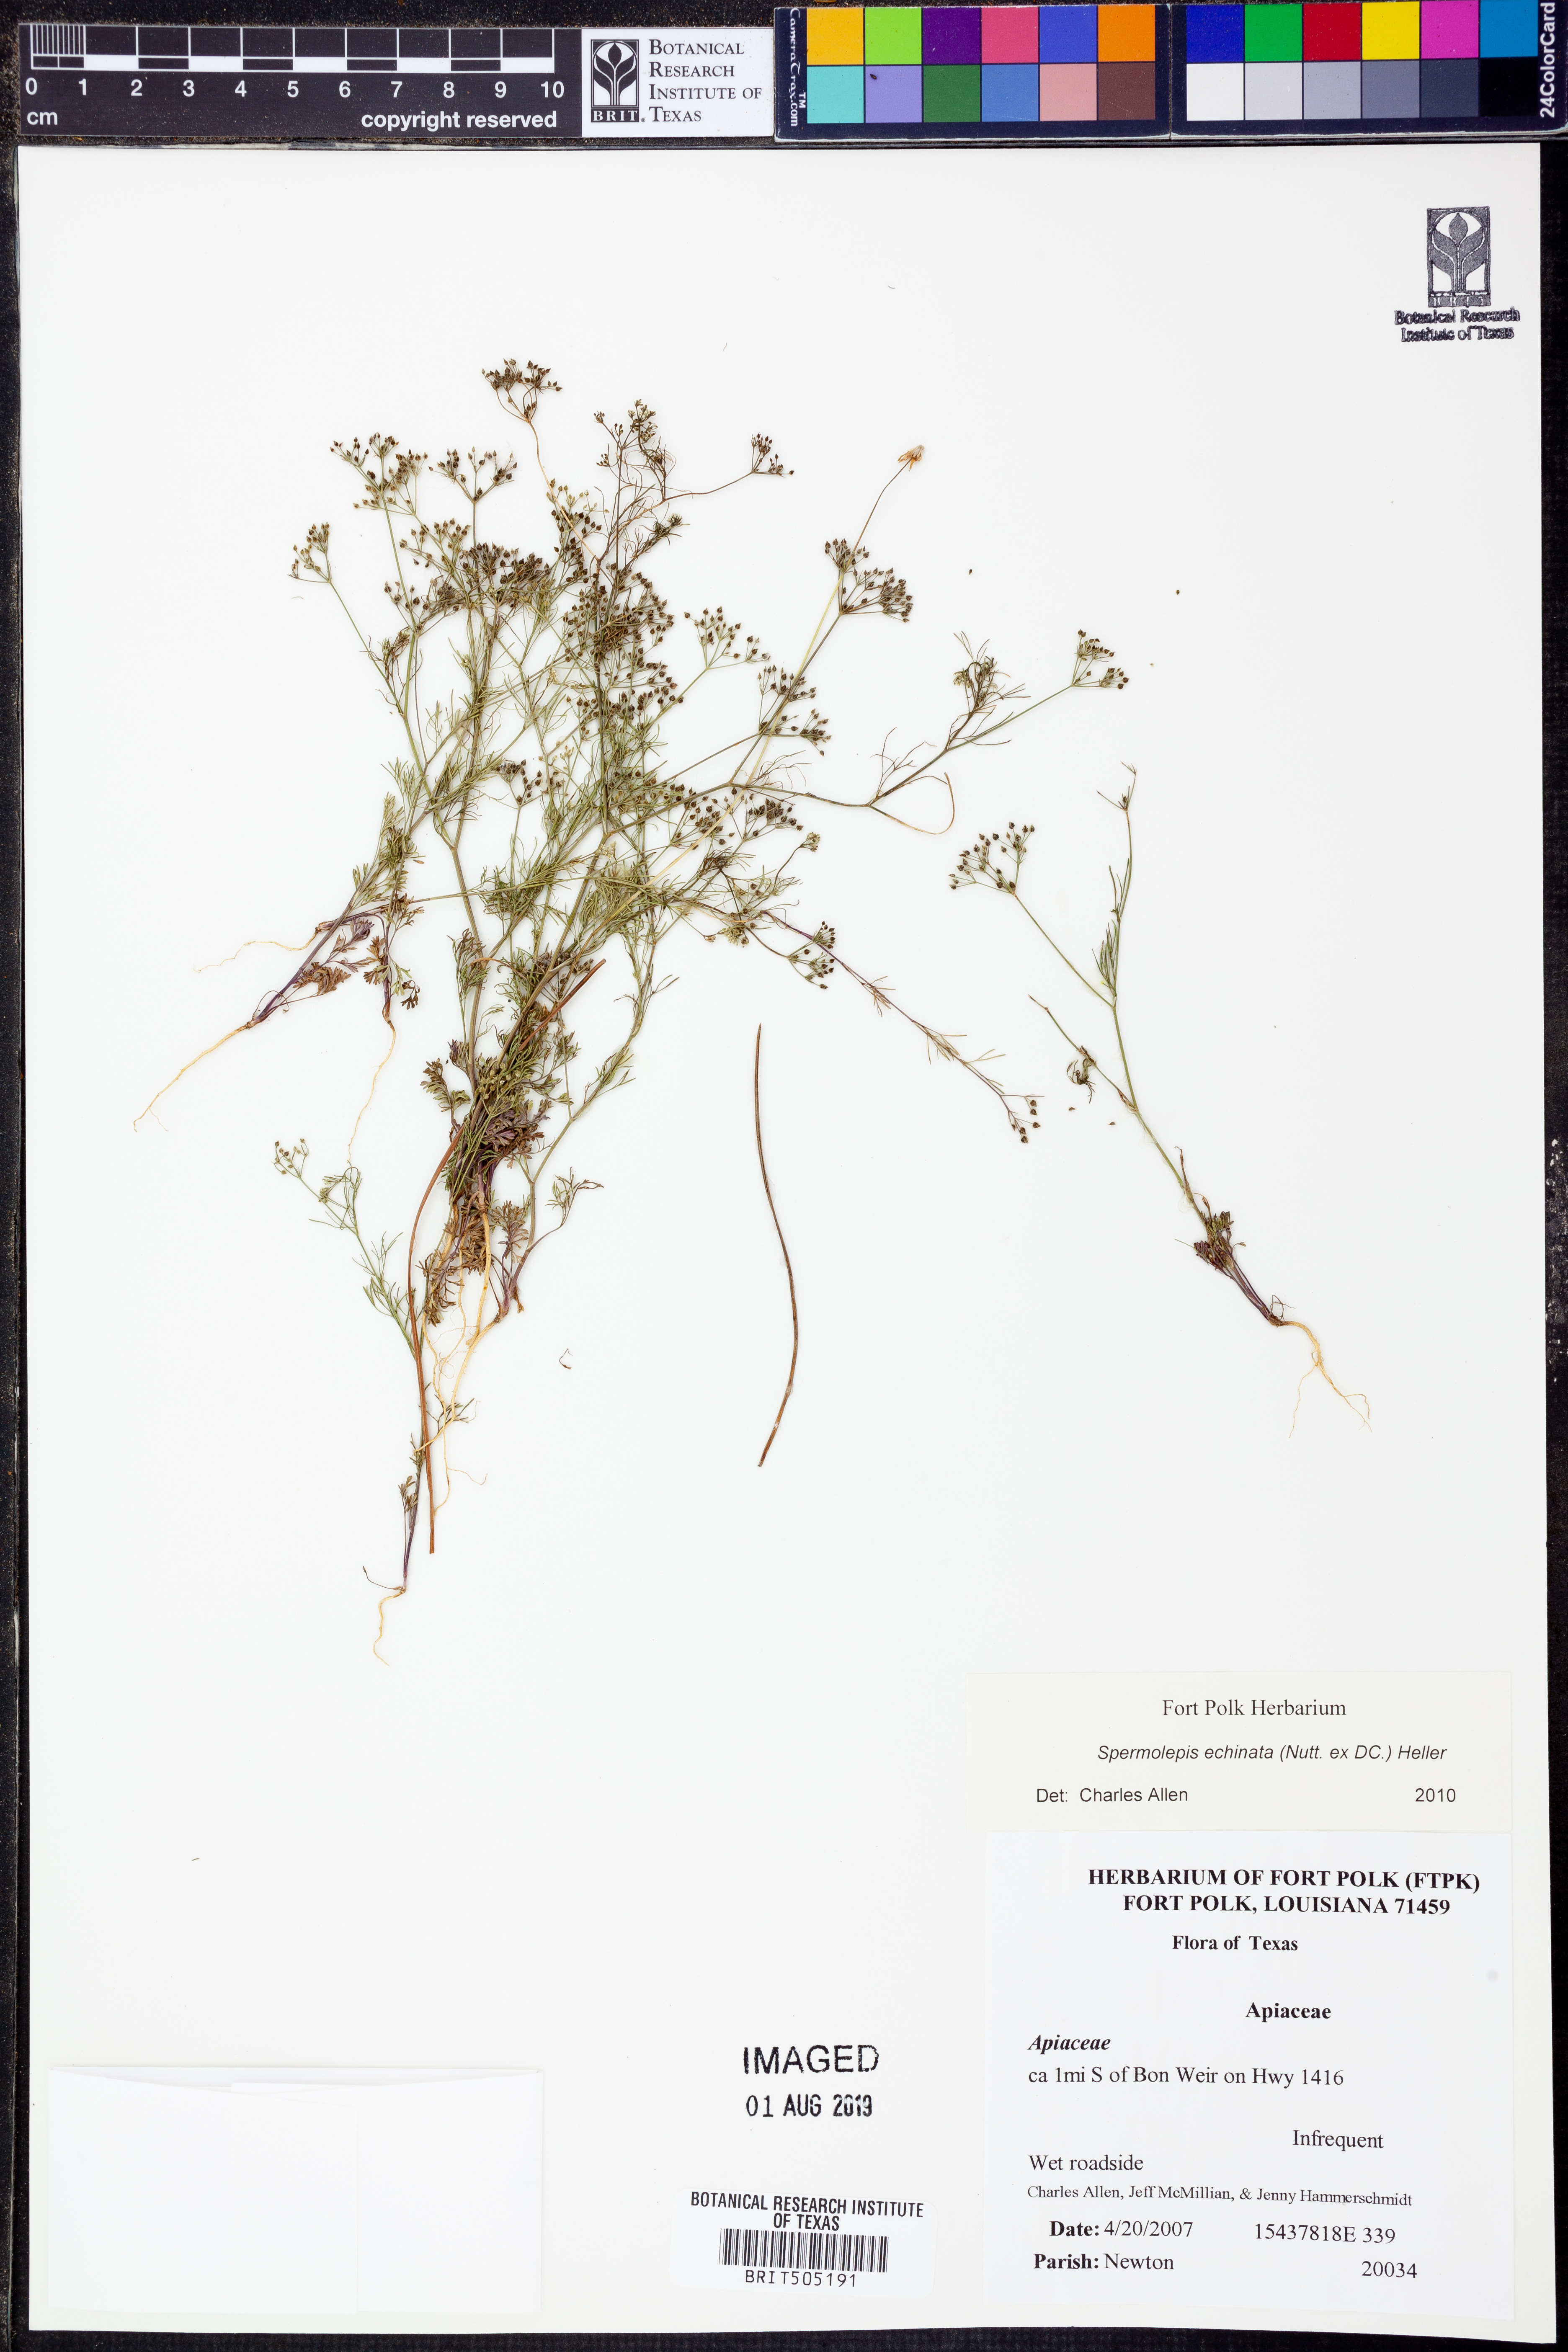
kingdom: Plantae
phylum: Tracheophyta
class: Magnoliopsida
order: Apiales
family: Apiaceae
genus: Spermolepis
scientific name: Spermolepis echinata
